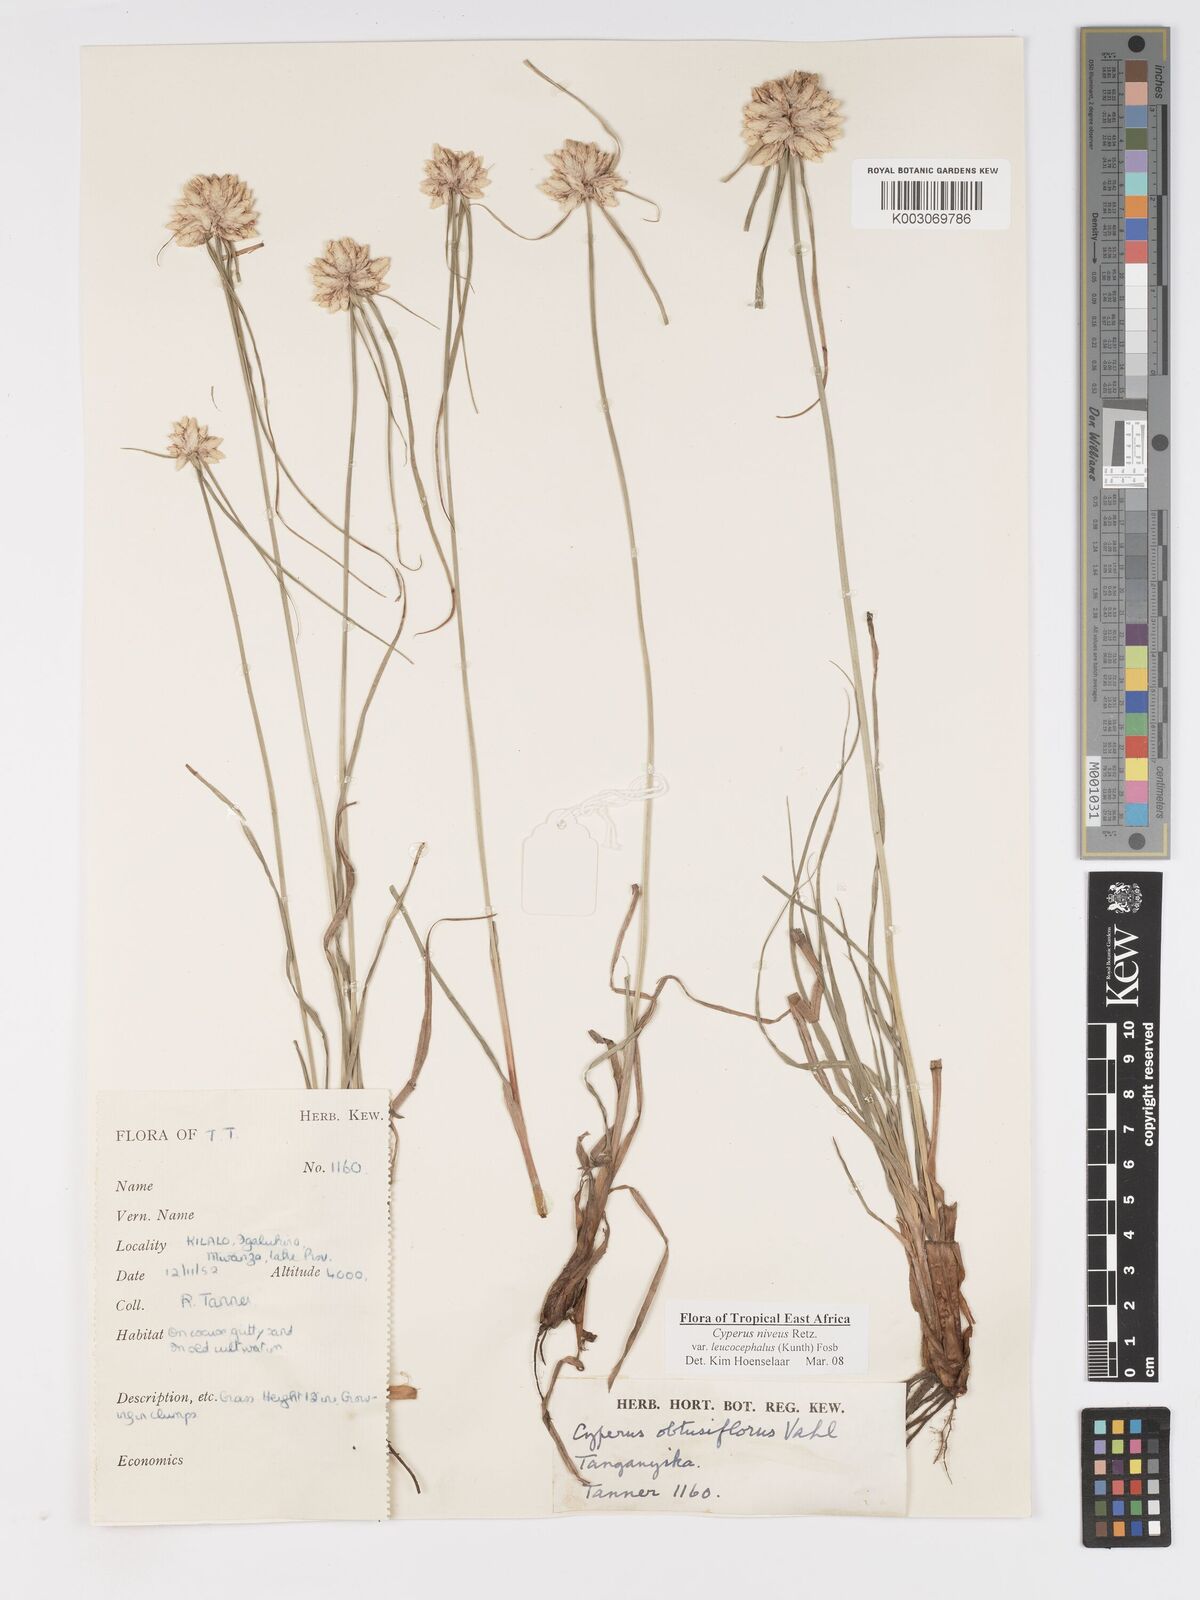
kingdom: Plantae
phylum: Tracheophyta
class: Liliopsida
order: Poales
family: Cyperaceae
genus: Cyperus
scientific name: Cyperus niveus
